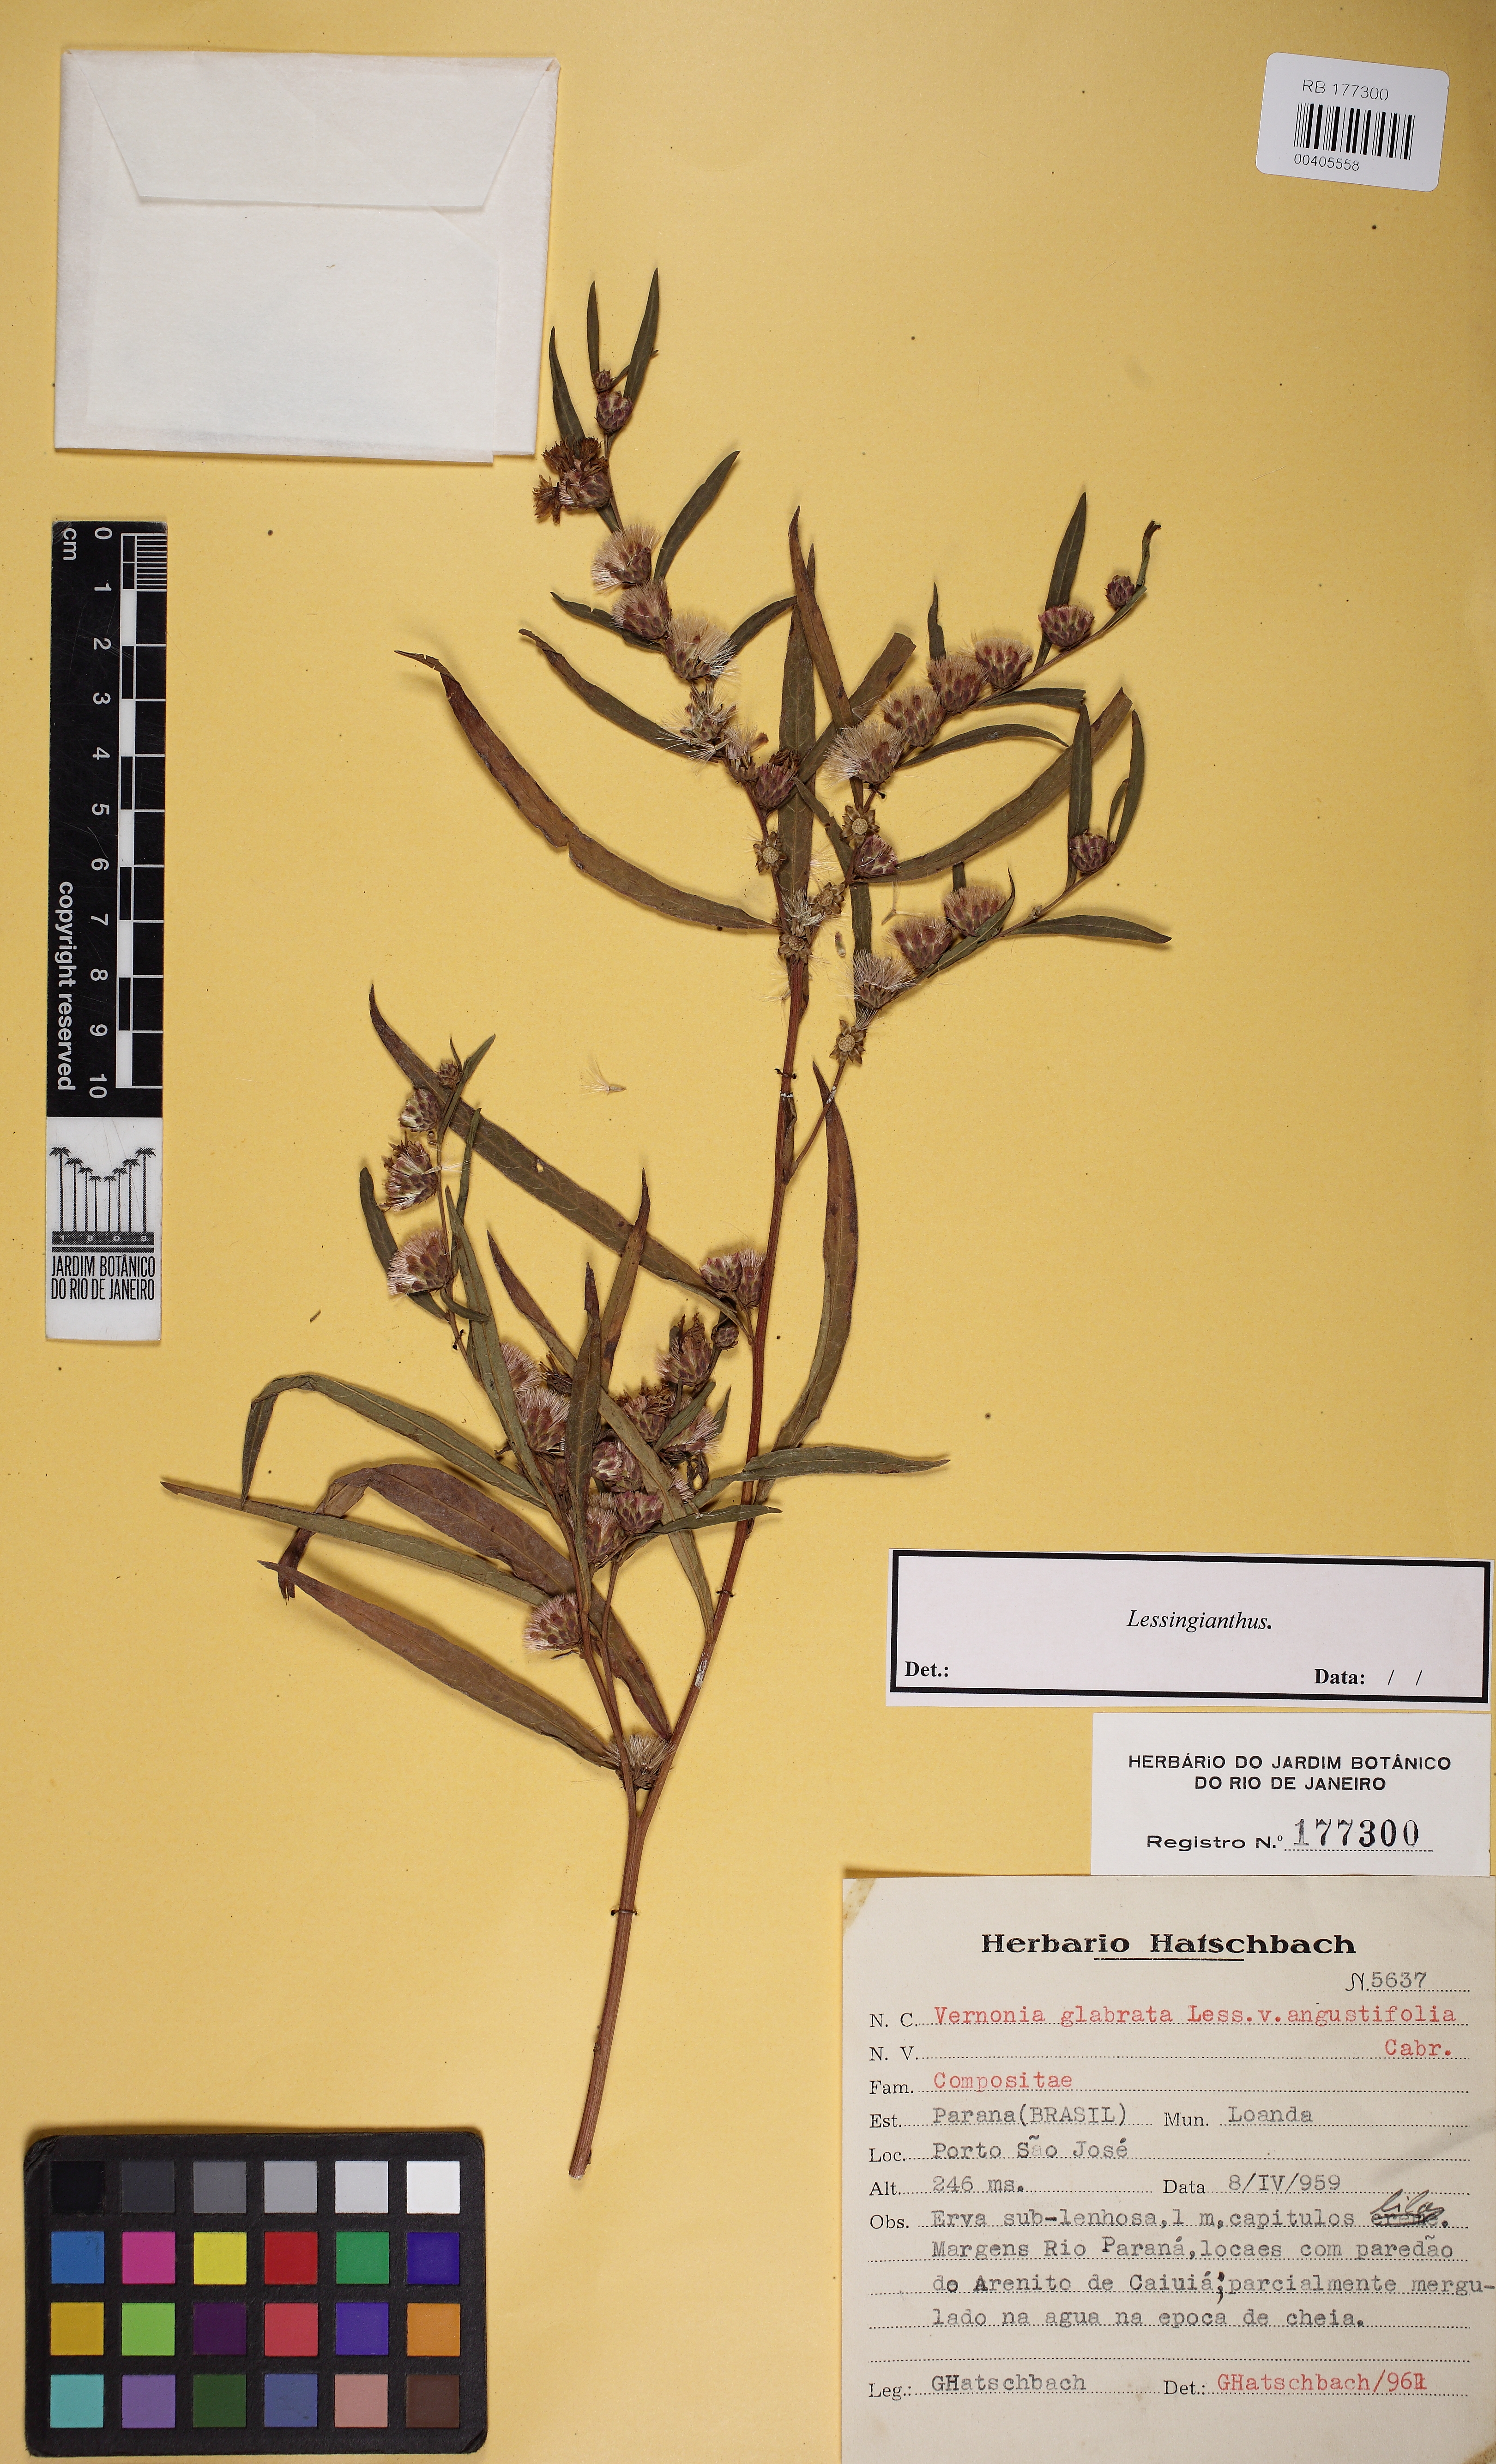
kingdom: Plantae
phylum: Tracheophyta
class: Magnoliopsida
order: Asterales
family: Asteraceae
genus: Lessingianthus
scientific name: Lessingianthus
